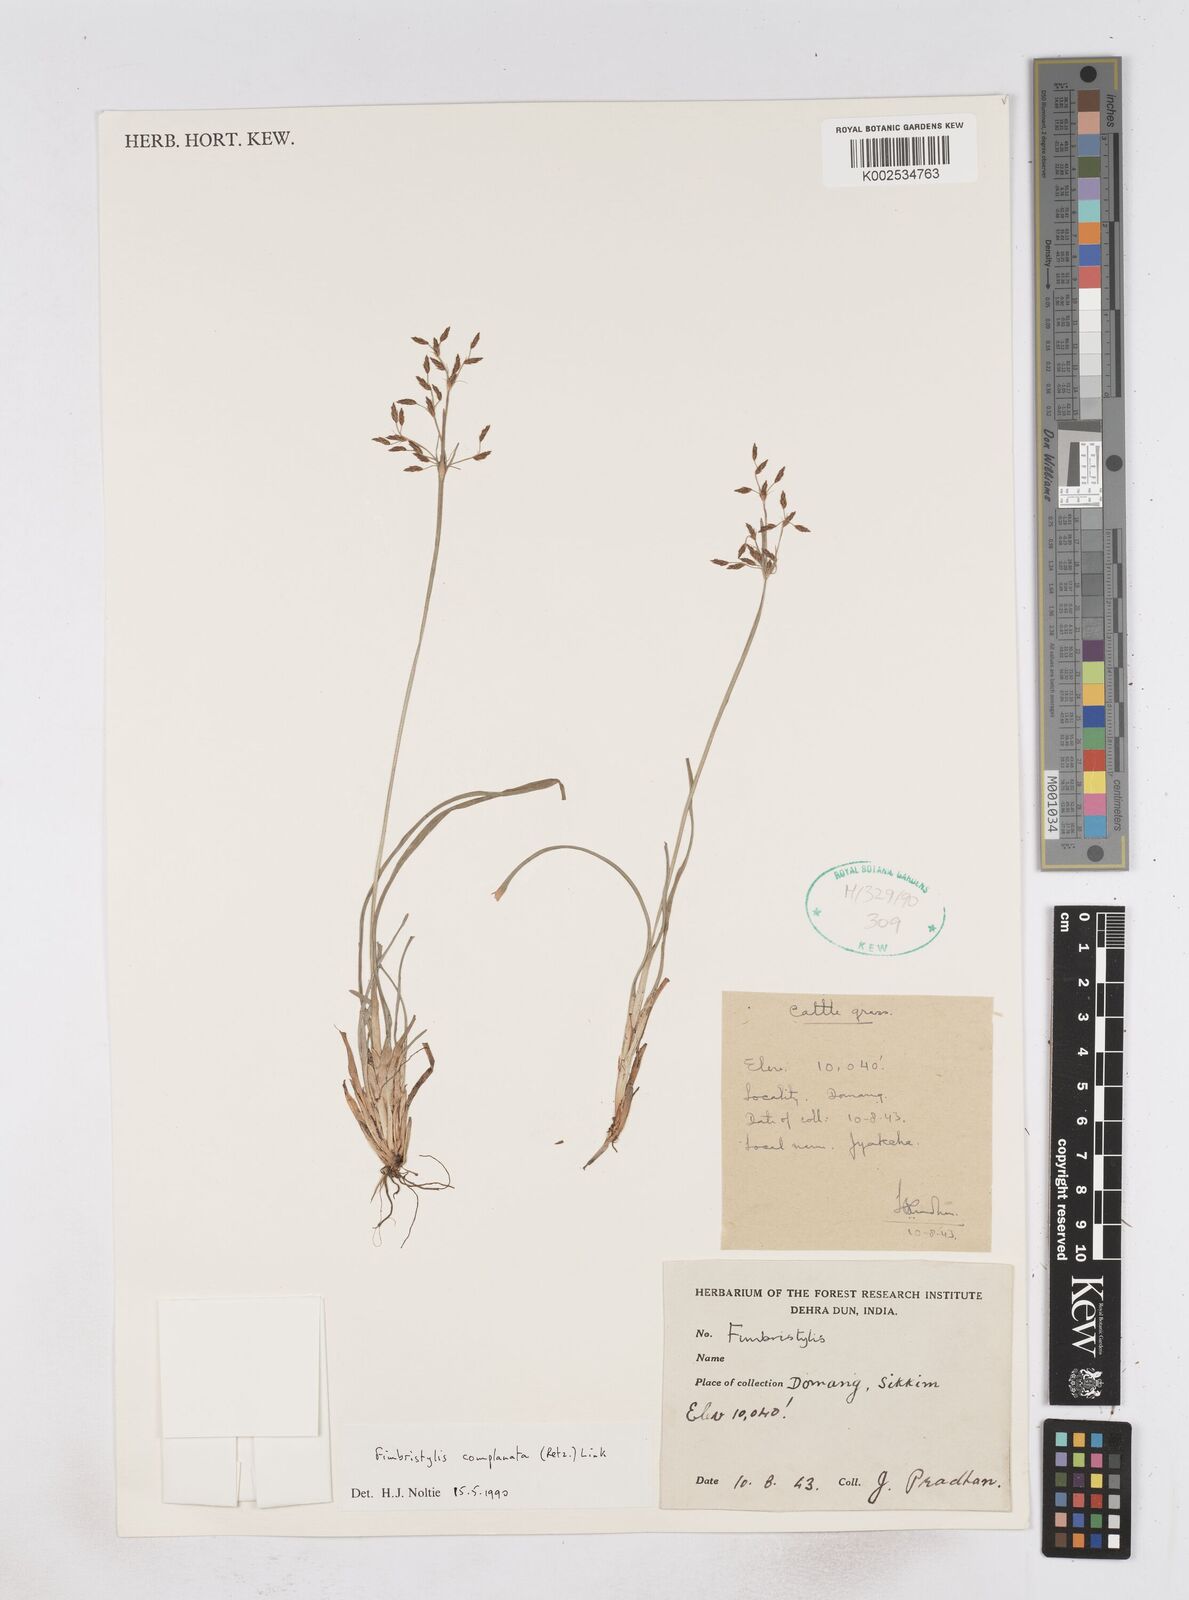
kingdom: Plantae
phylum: Tracheophyta
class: Liliopsida
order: Poales
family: Cyperaceae
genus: Fimbristylis
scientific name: Fimbristylis complanata
